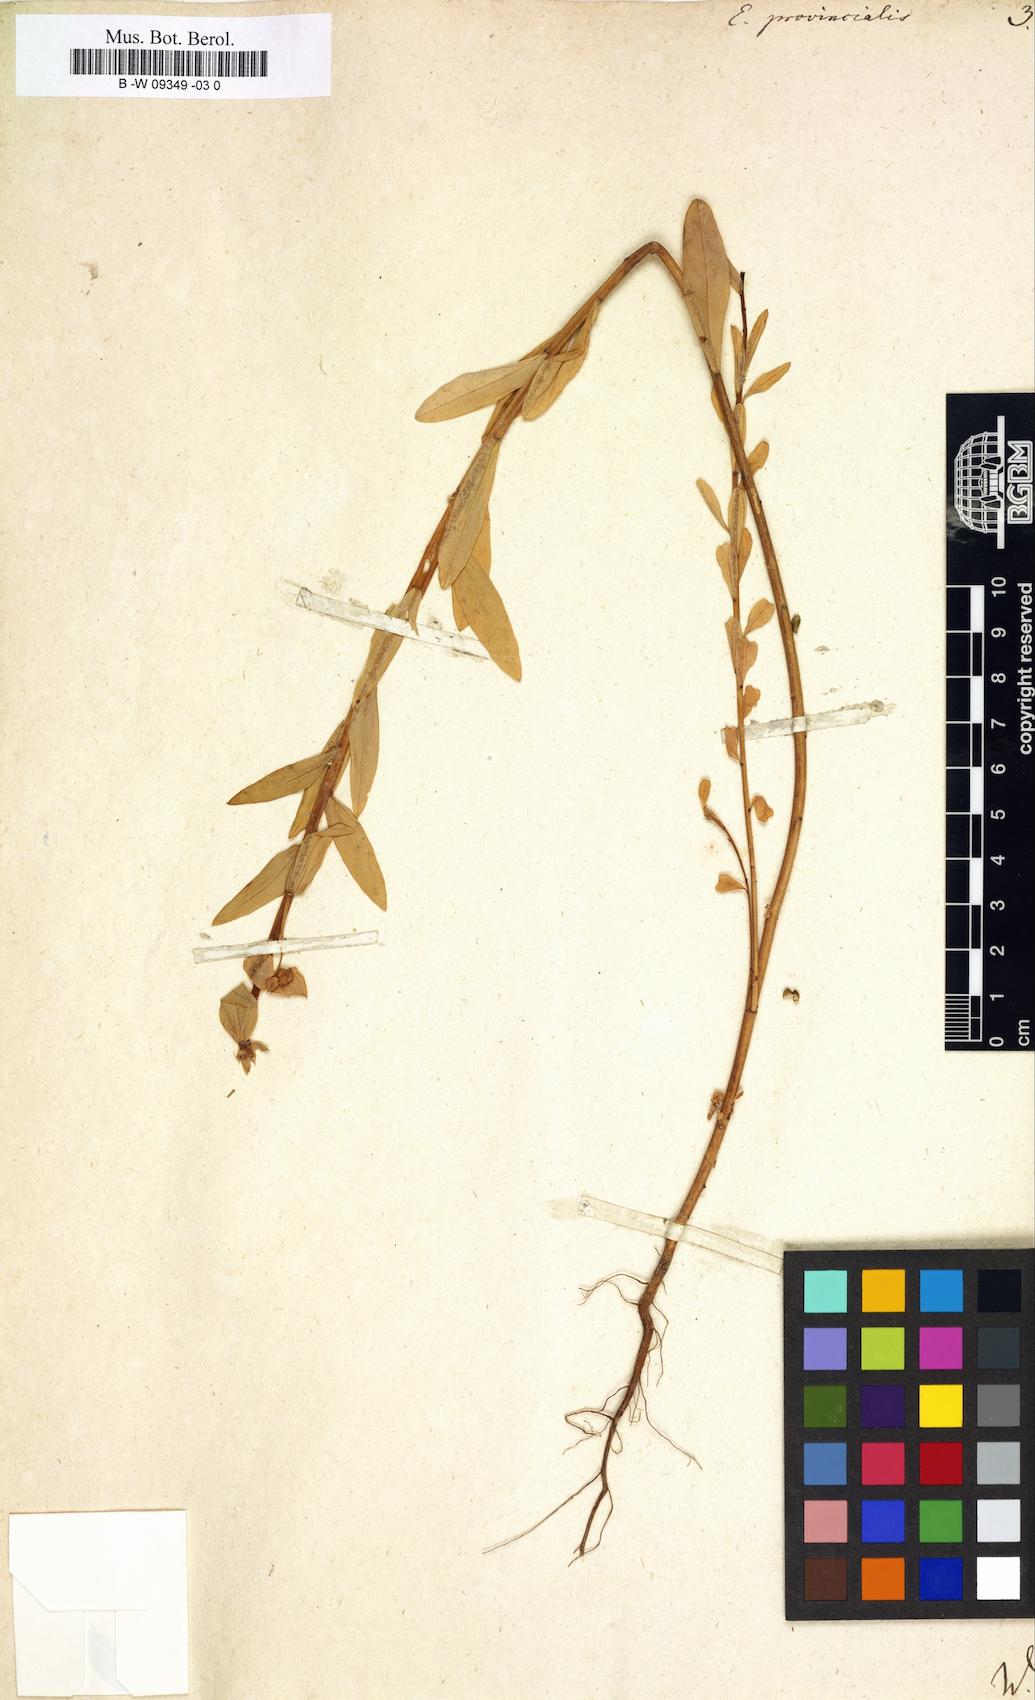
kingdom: Plantae
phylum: Tracheophyta
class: Magnoliopsida
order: Malpighiales
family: Euphorbiaceae
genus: Euphorbia
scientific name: Euphorbia terracina
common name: Geraldton carnation weed
